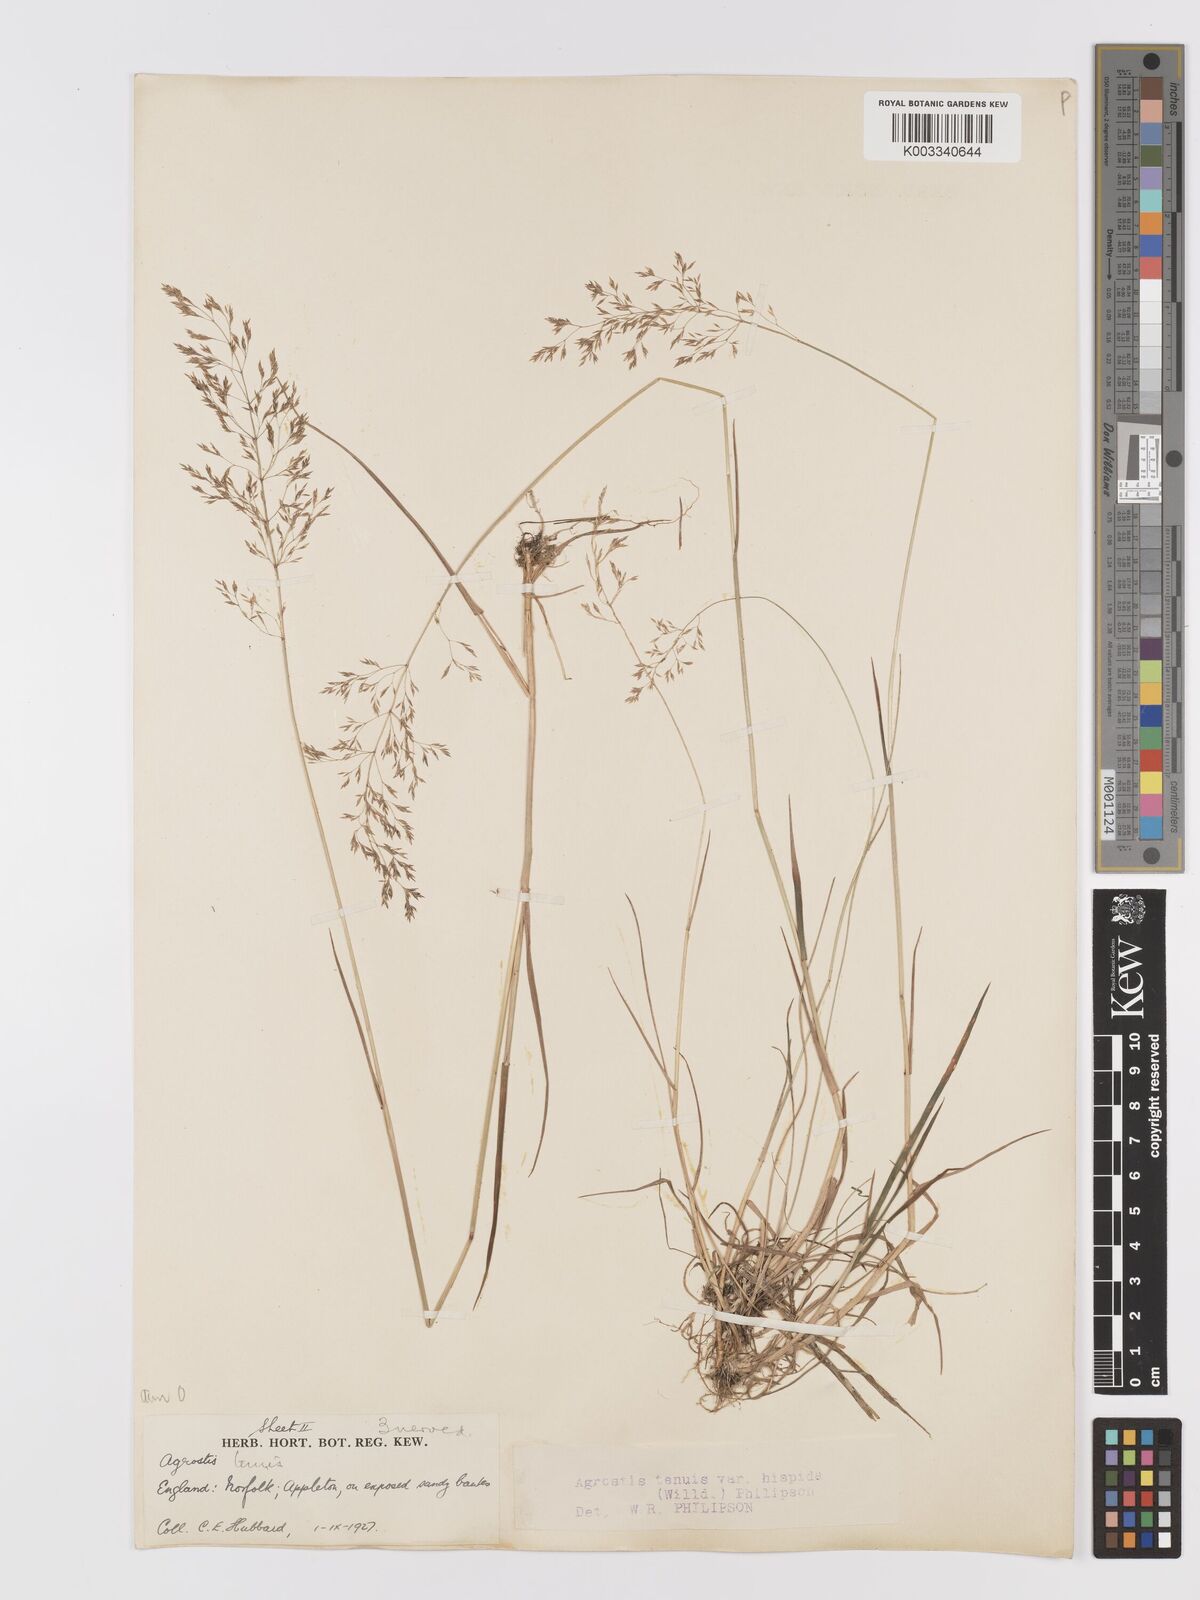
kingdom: Plantae
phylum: Tracheophyta
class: Liliopsida
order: Poales
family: Poaceae
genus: Agrostis
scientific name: Agrostis capillaris
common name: Colonial bentgrass
